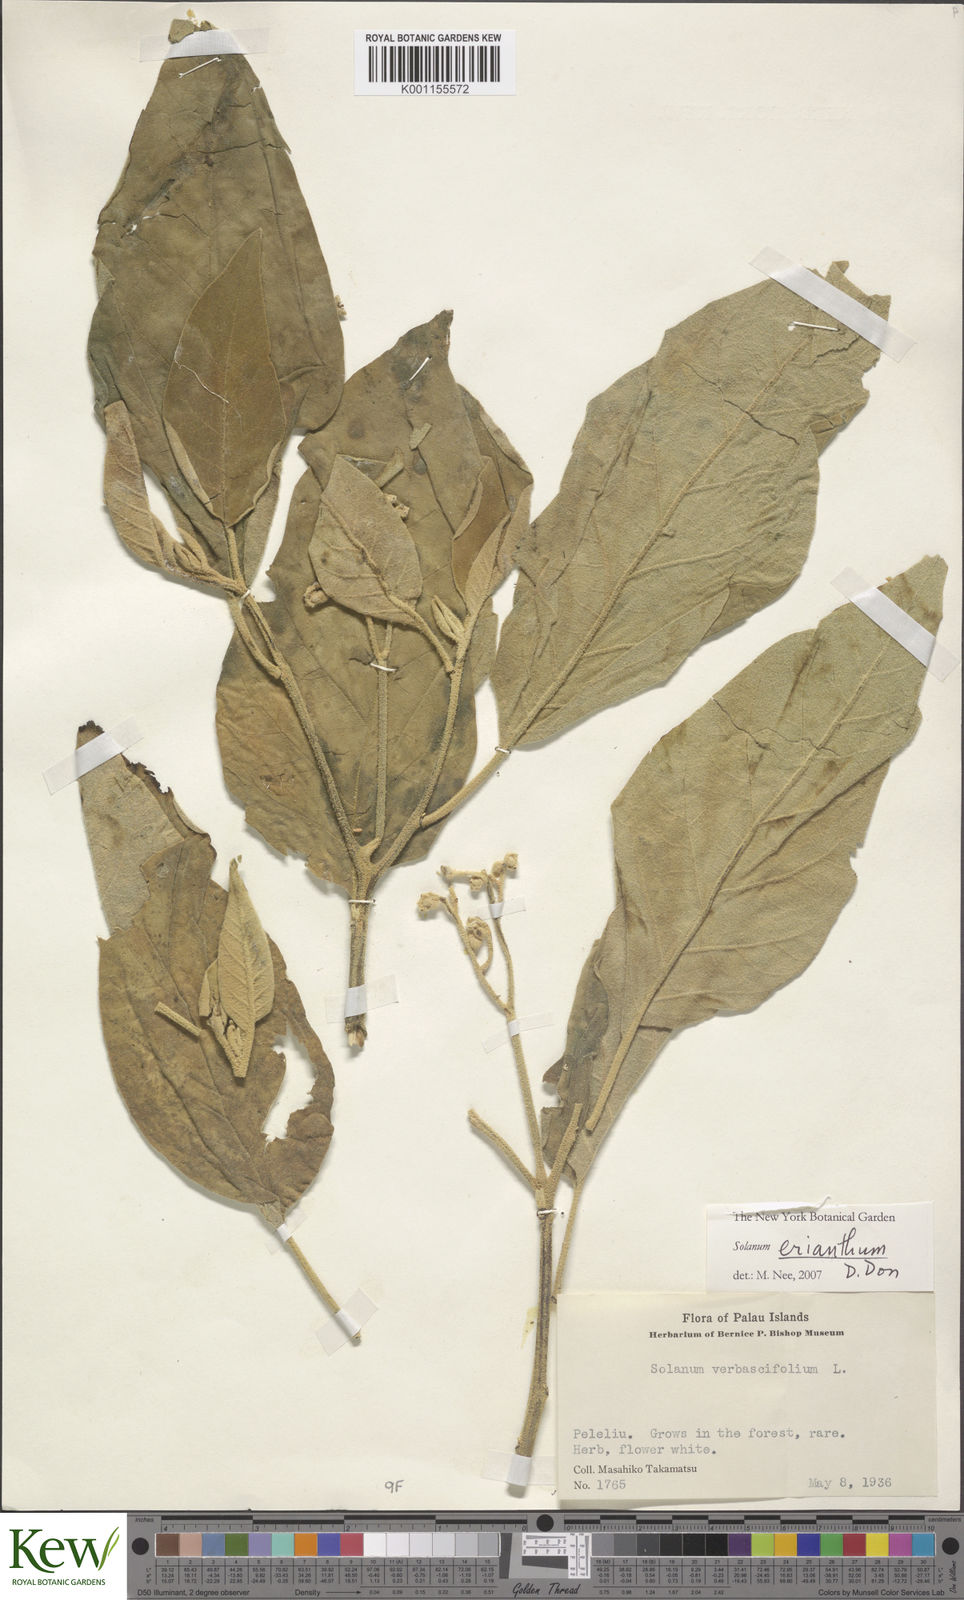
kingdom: Plantae
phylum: Tracheophyta
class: Magnoliopsida
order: Solanales
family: Solanaceae
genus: Solanum
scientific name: Solanum erianthum
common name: Tobacco-tree
